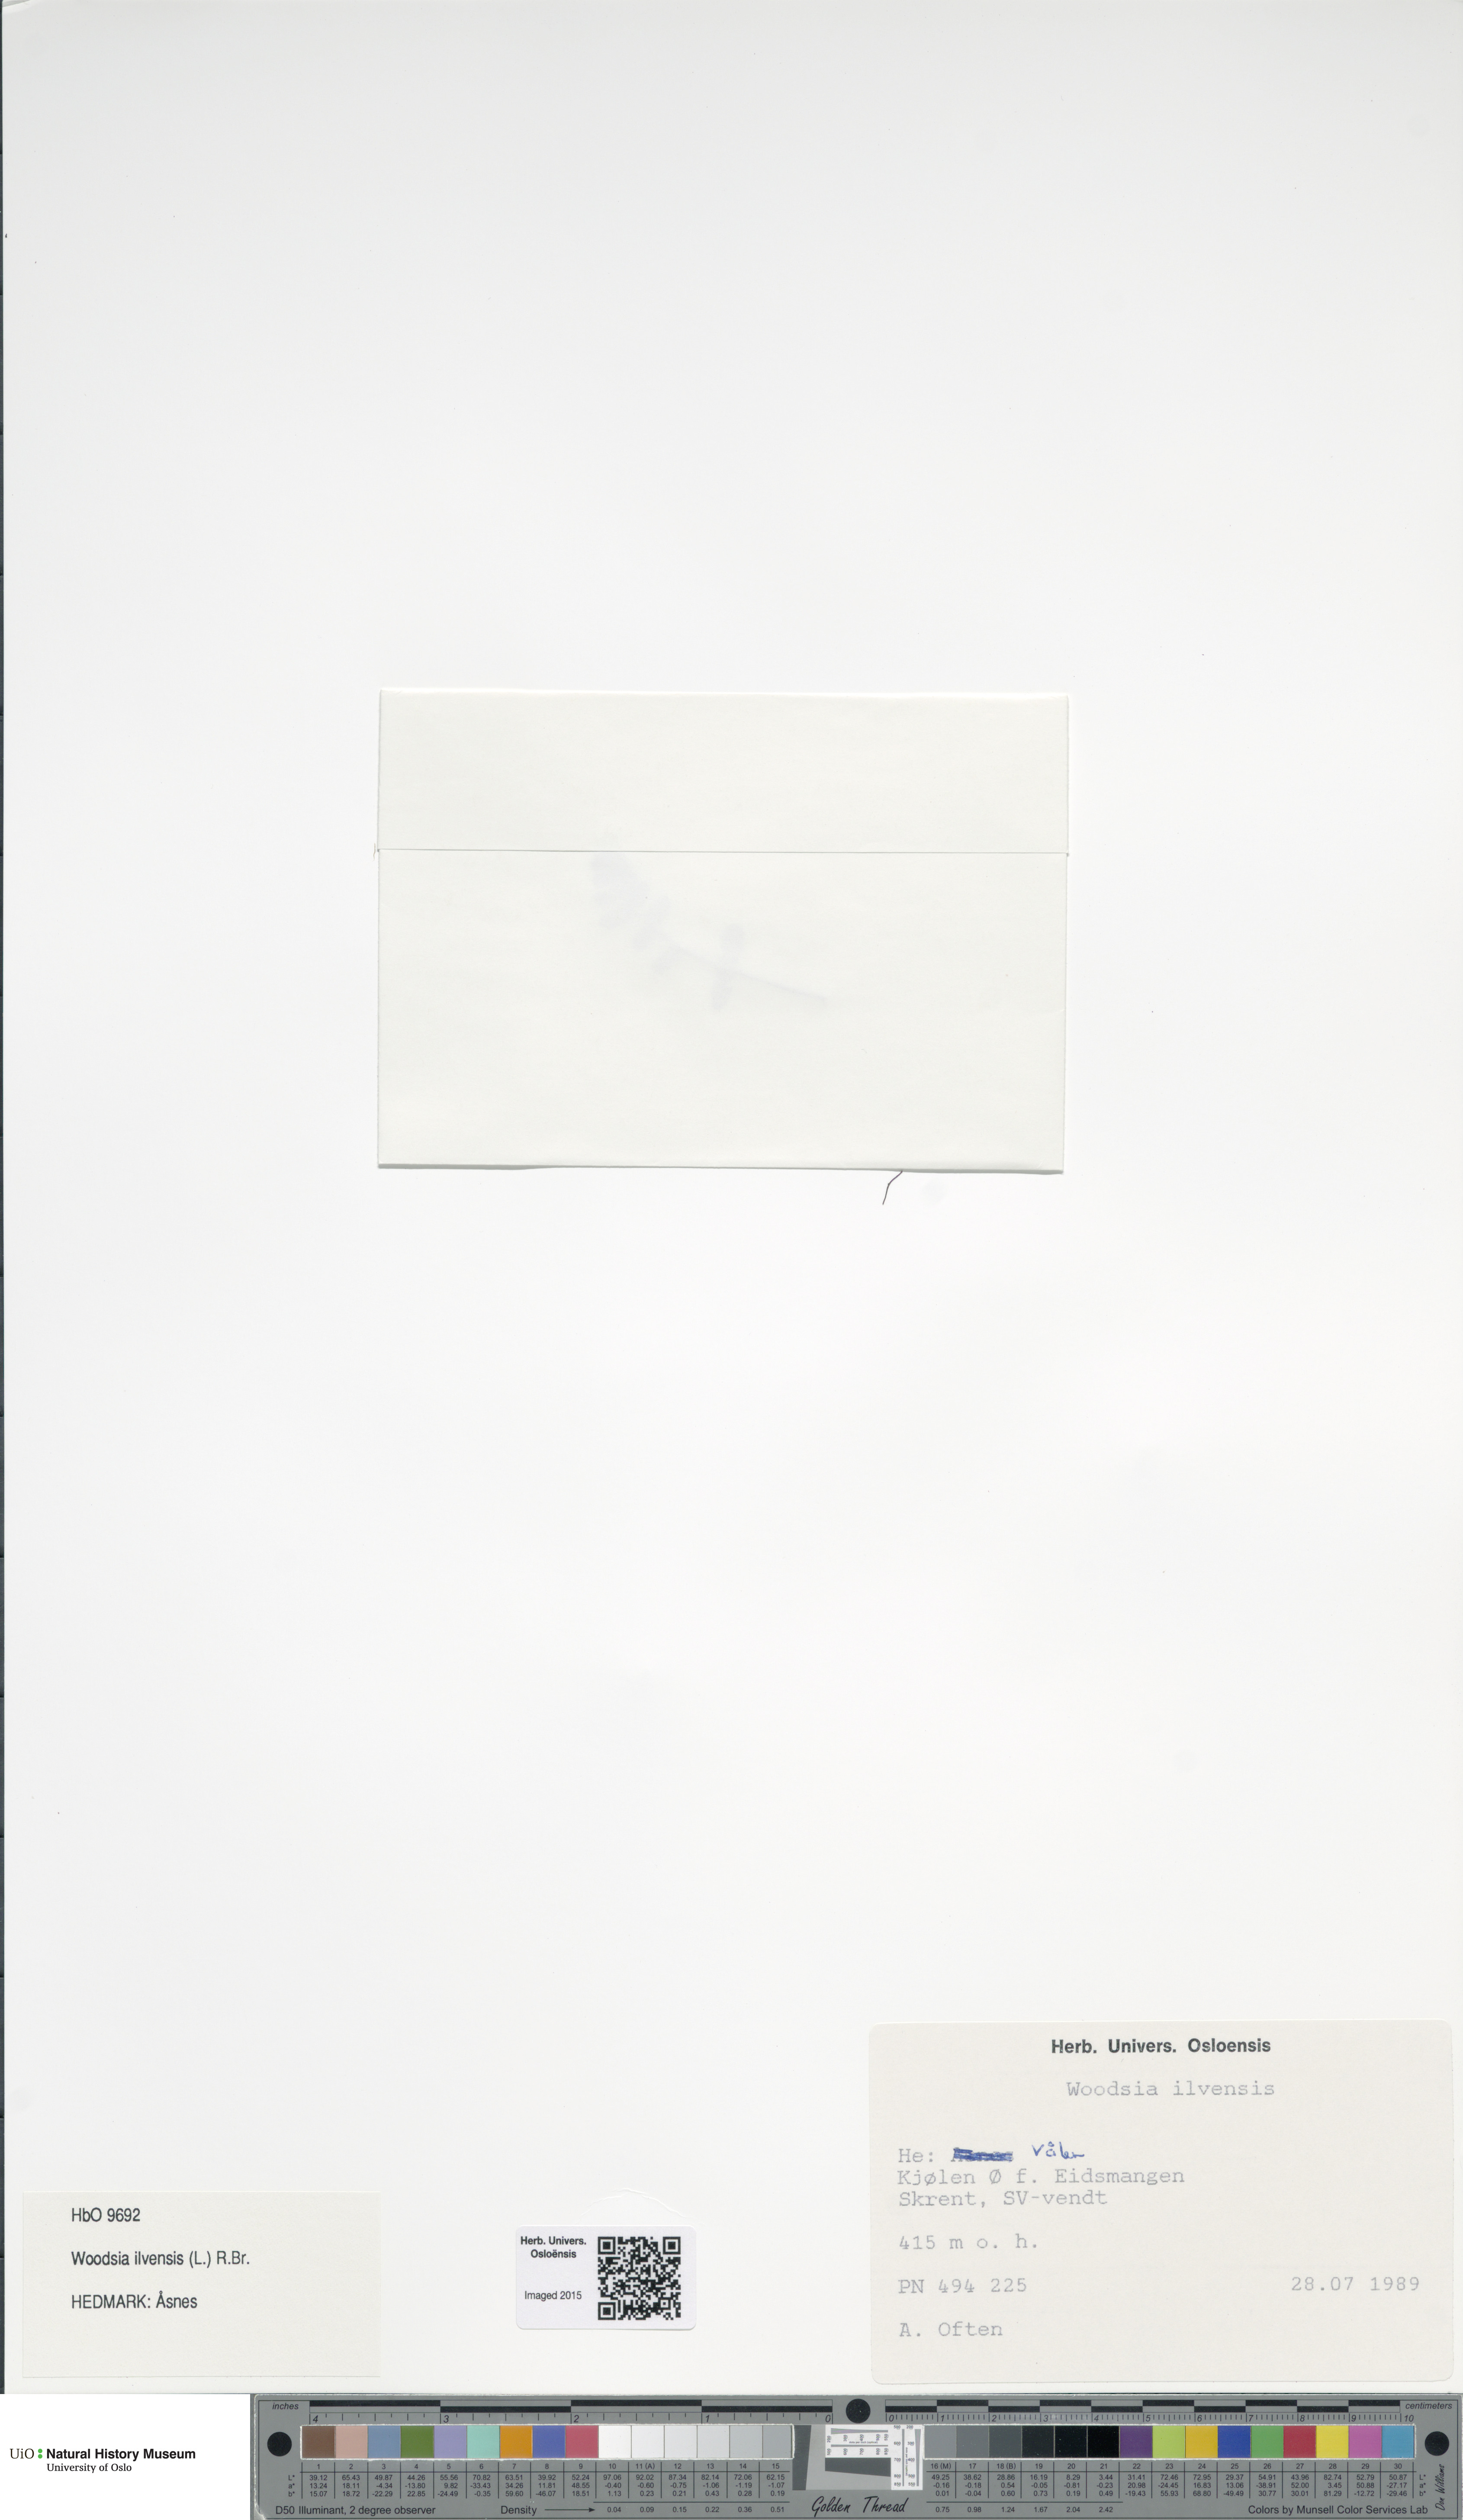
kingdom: Plantae
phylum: Tracheophyta
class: Polypodiopsida
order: Polypodiales
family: Woodsiaceae
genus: Woodsia
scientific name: Woodsia ilvensis
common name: Fragrant woodsia
